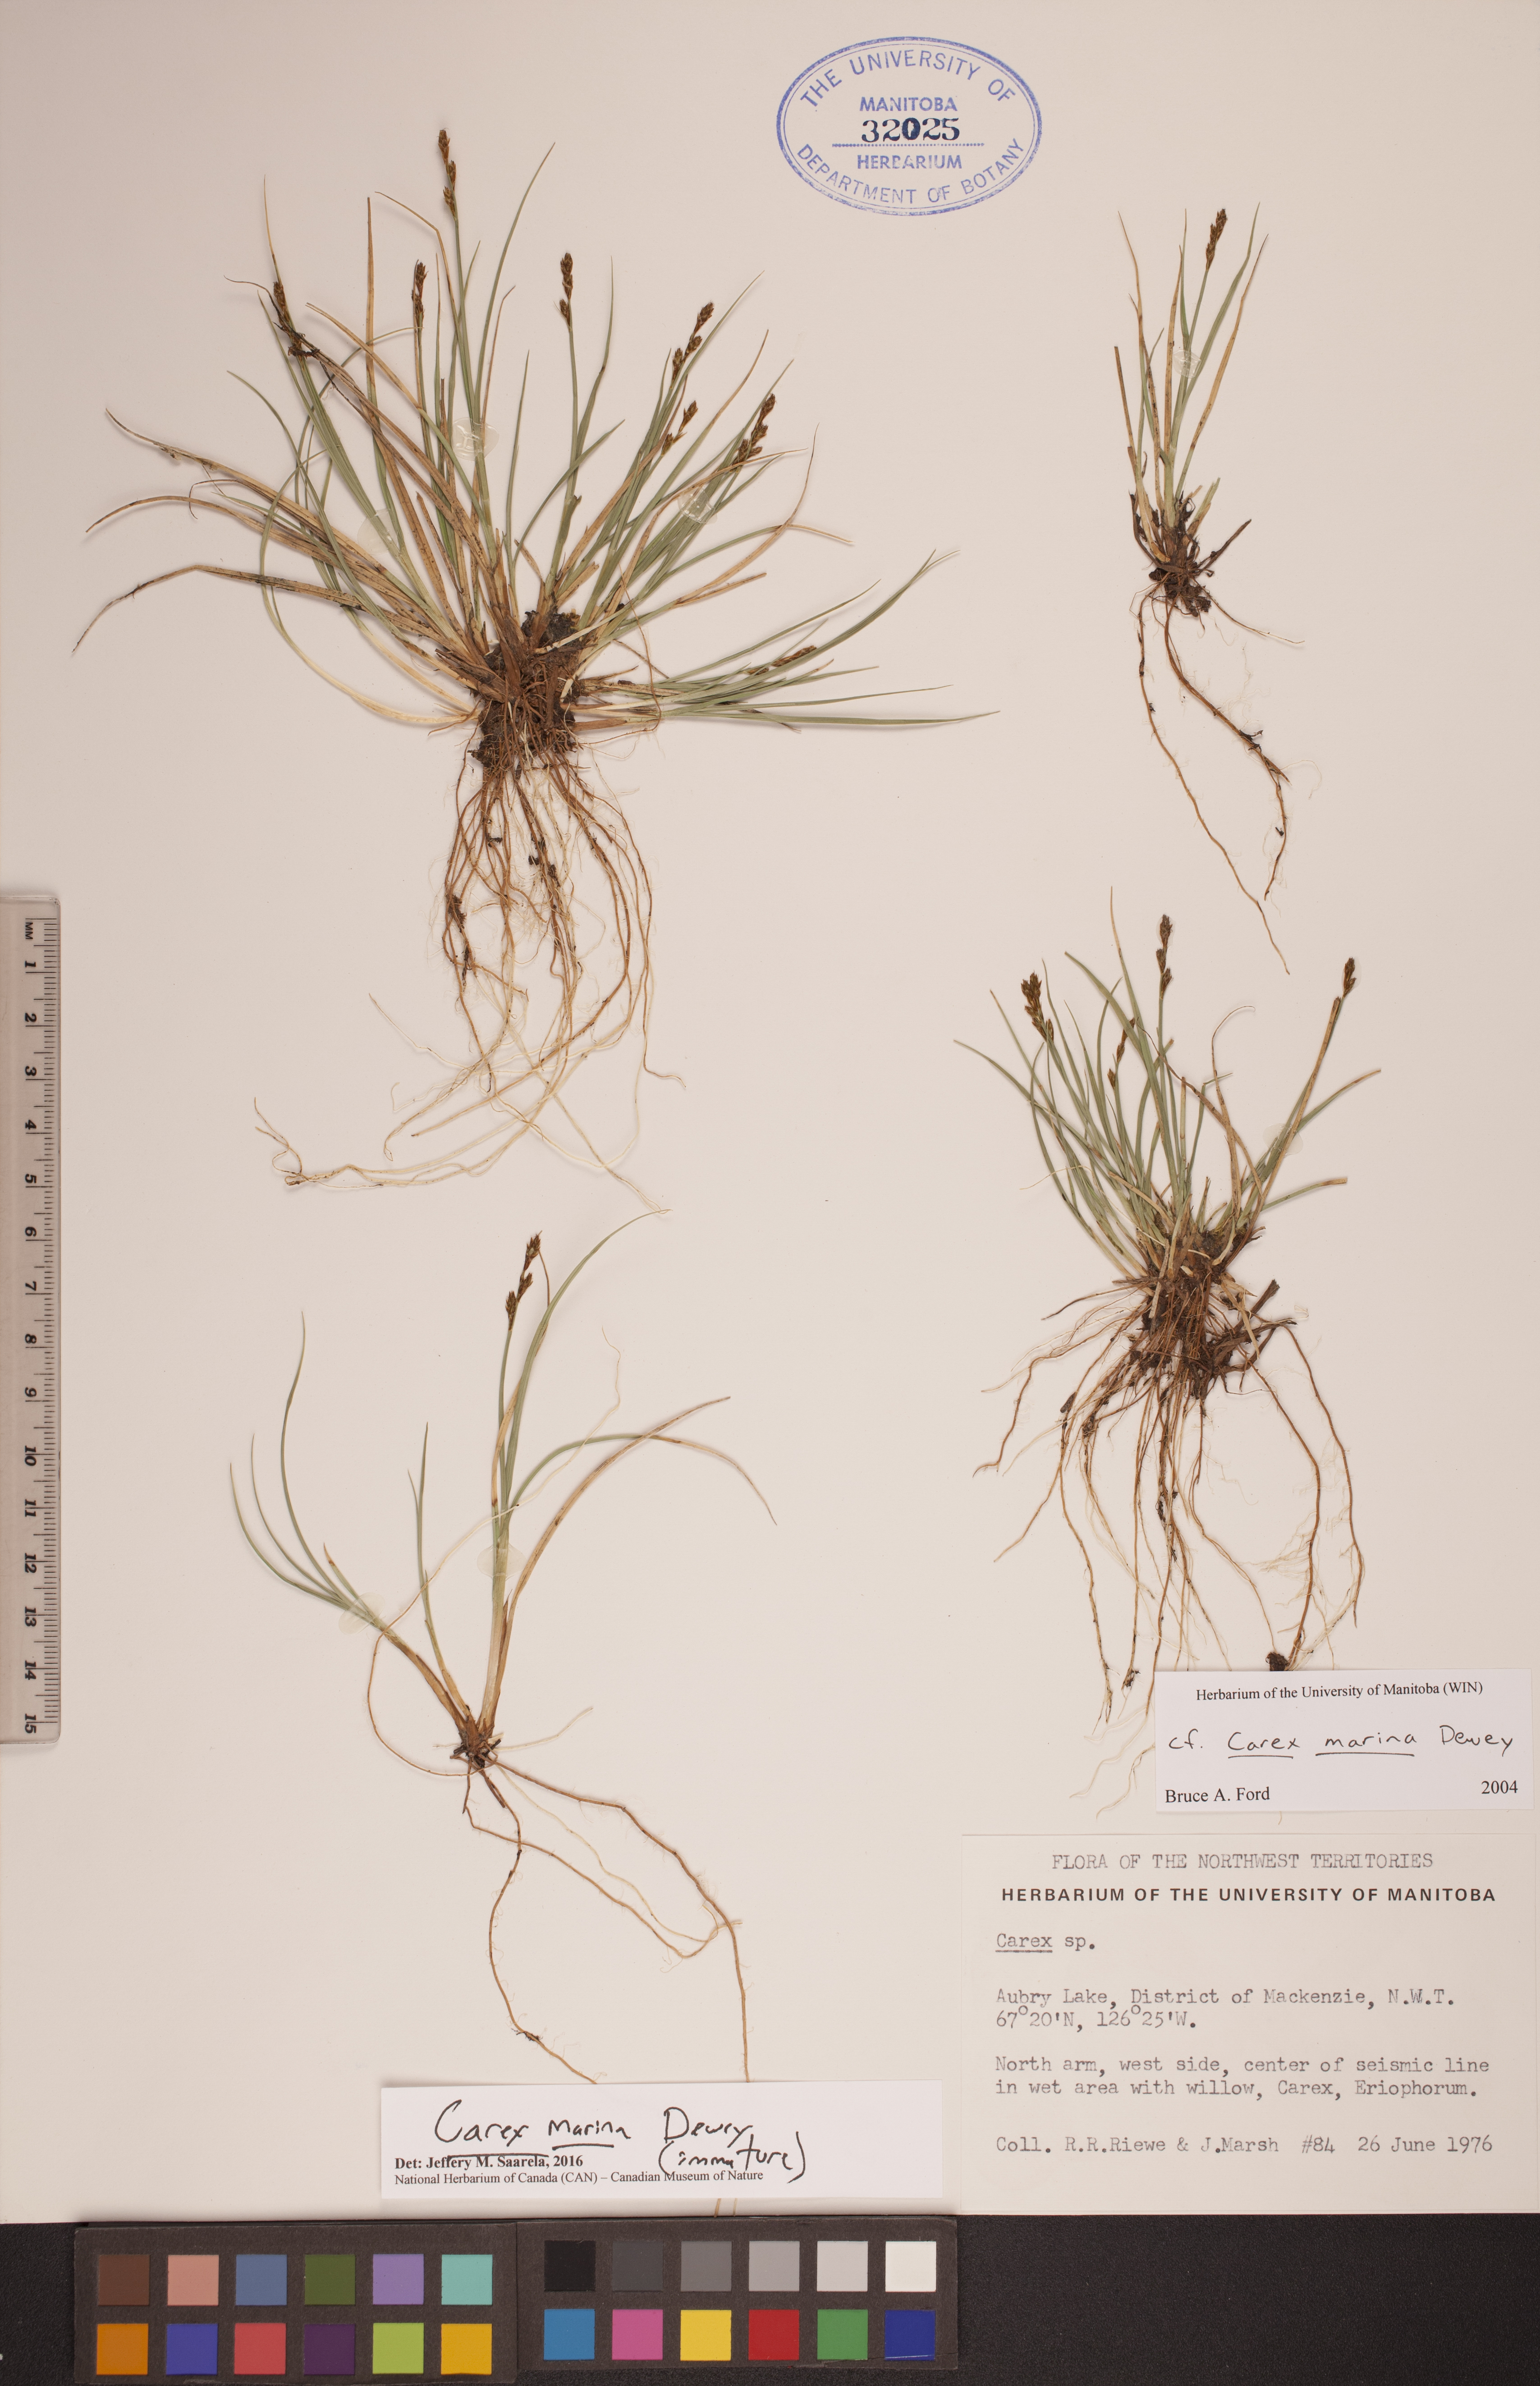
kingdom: Plantae
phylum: Tracheophyta
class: Liliopsida
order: Poales
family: Cyperaceae
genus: Carex
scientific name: Carex marina
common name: Seashore sedge
